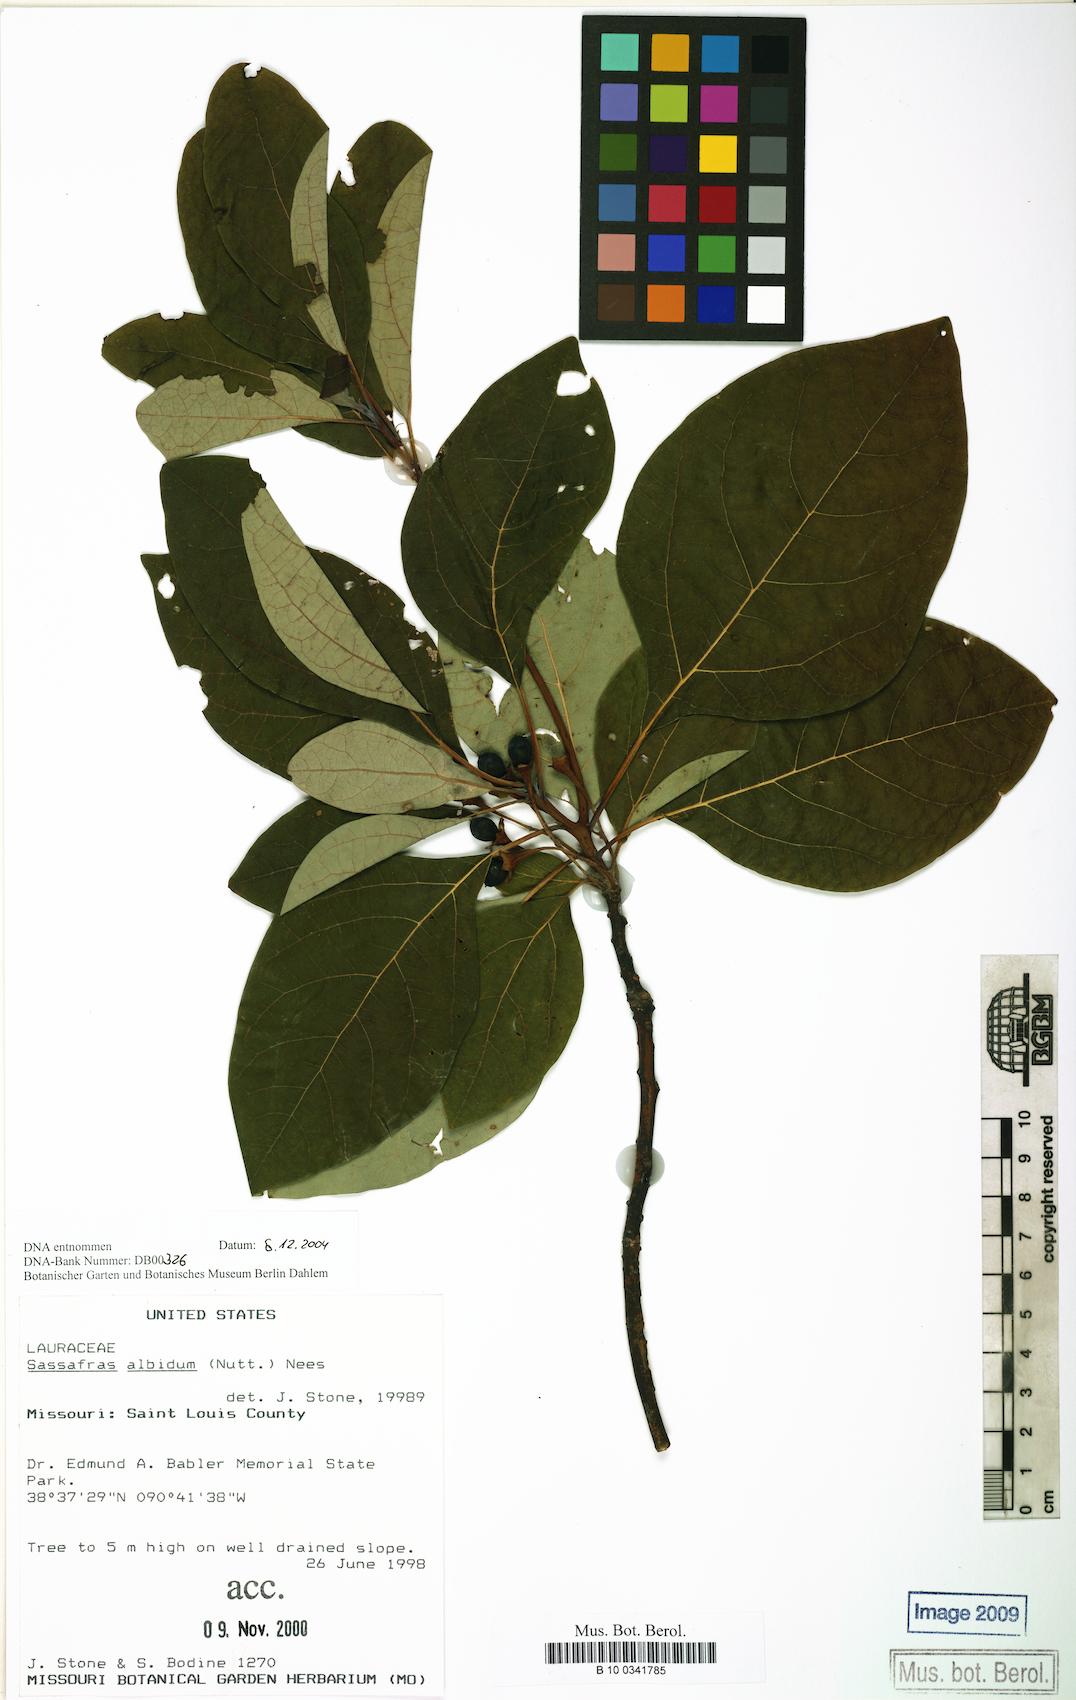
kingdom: Plantae
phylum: Tracheophyta
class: Magnoliopsida
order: Laurales
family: Lauraceae
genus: Sassafras
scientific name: Sassafras albidum
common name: Sassafras
